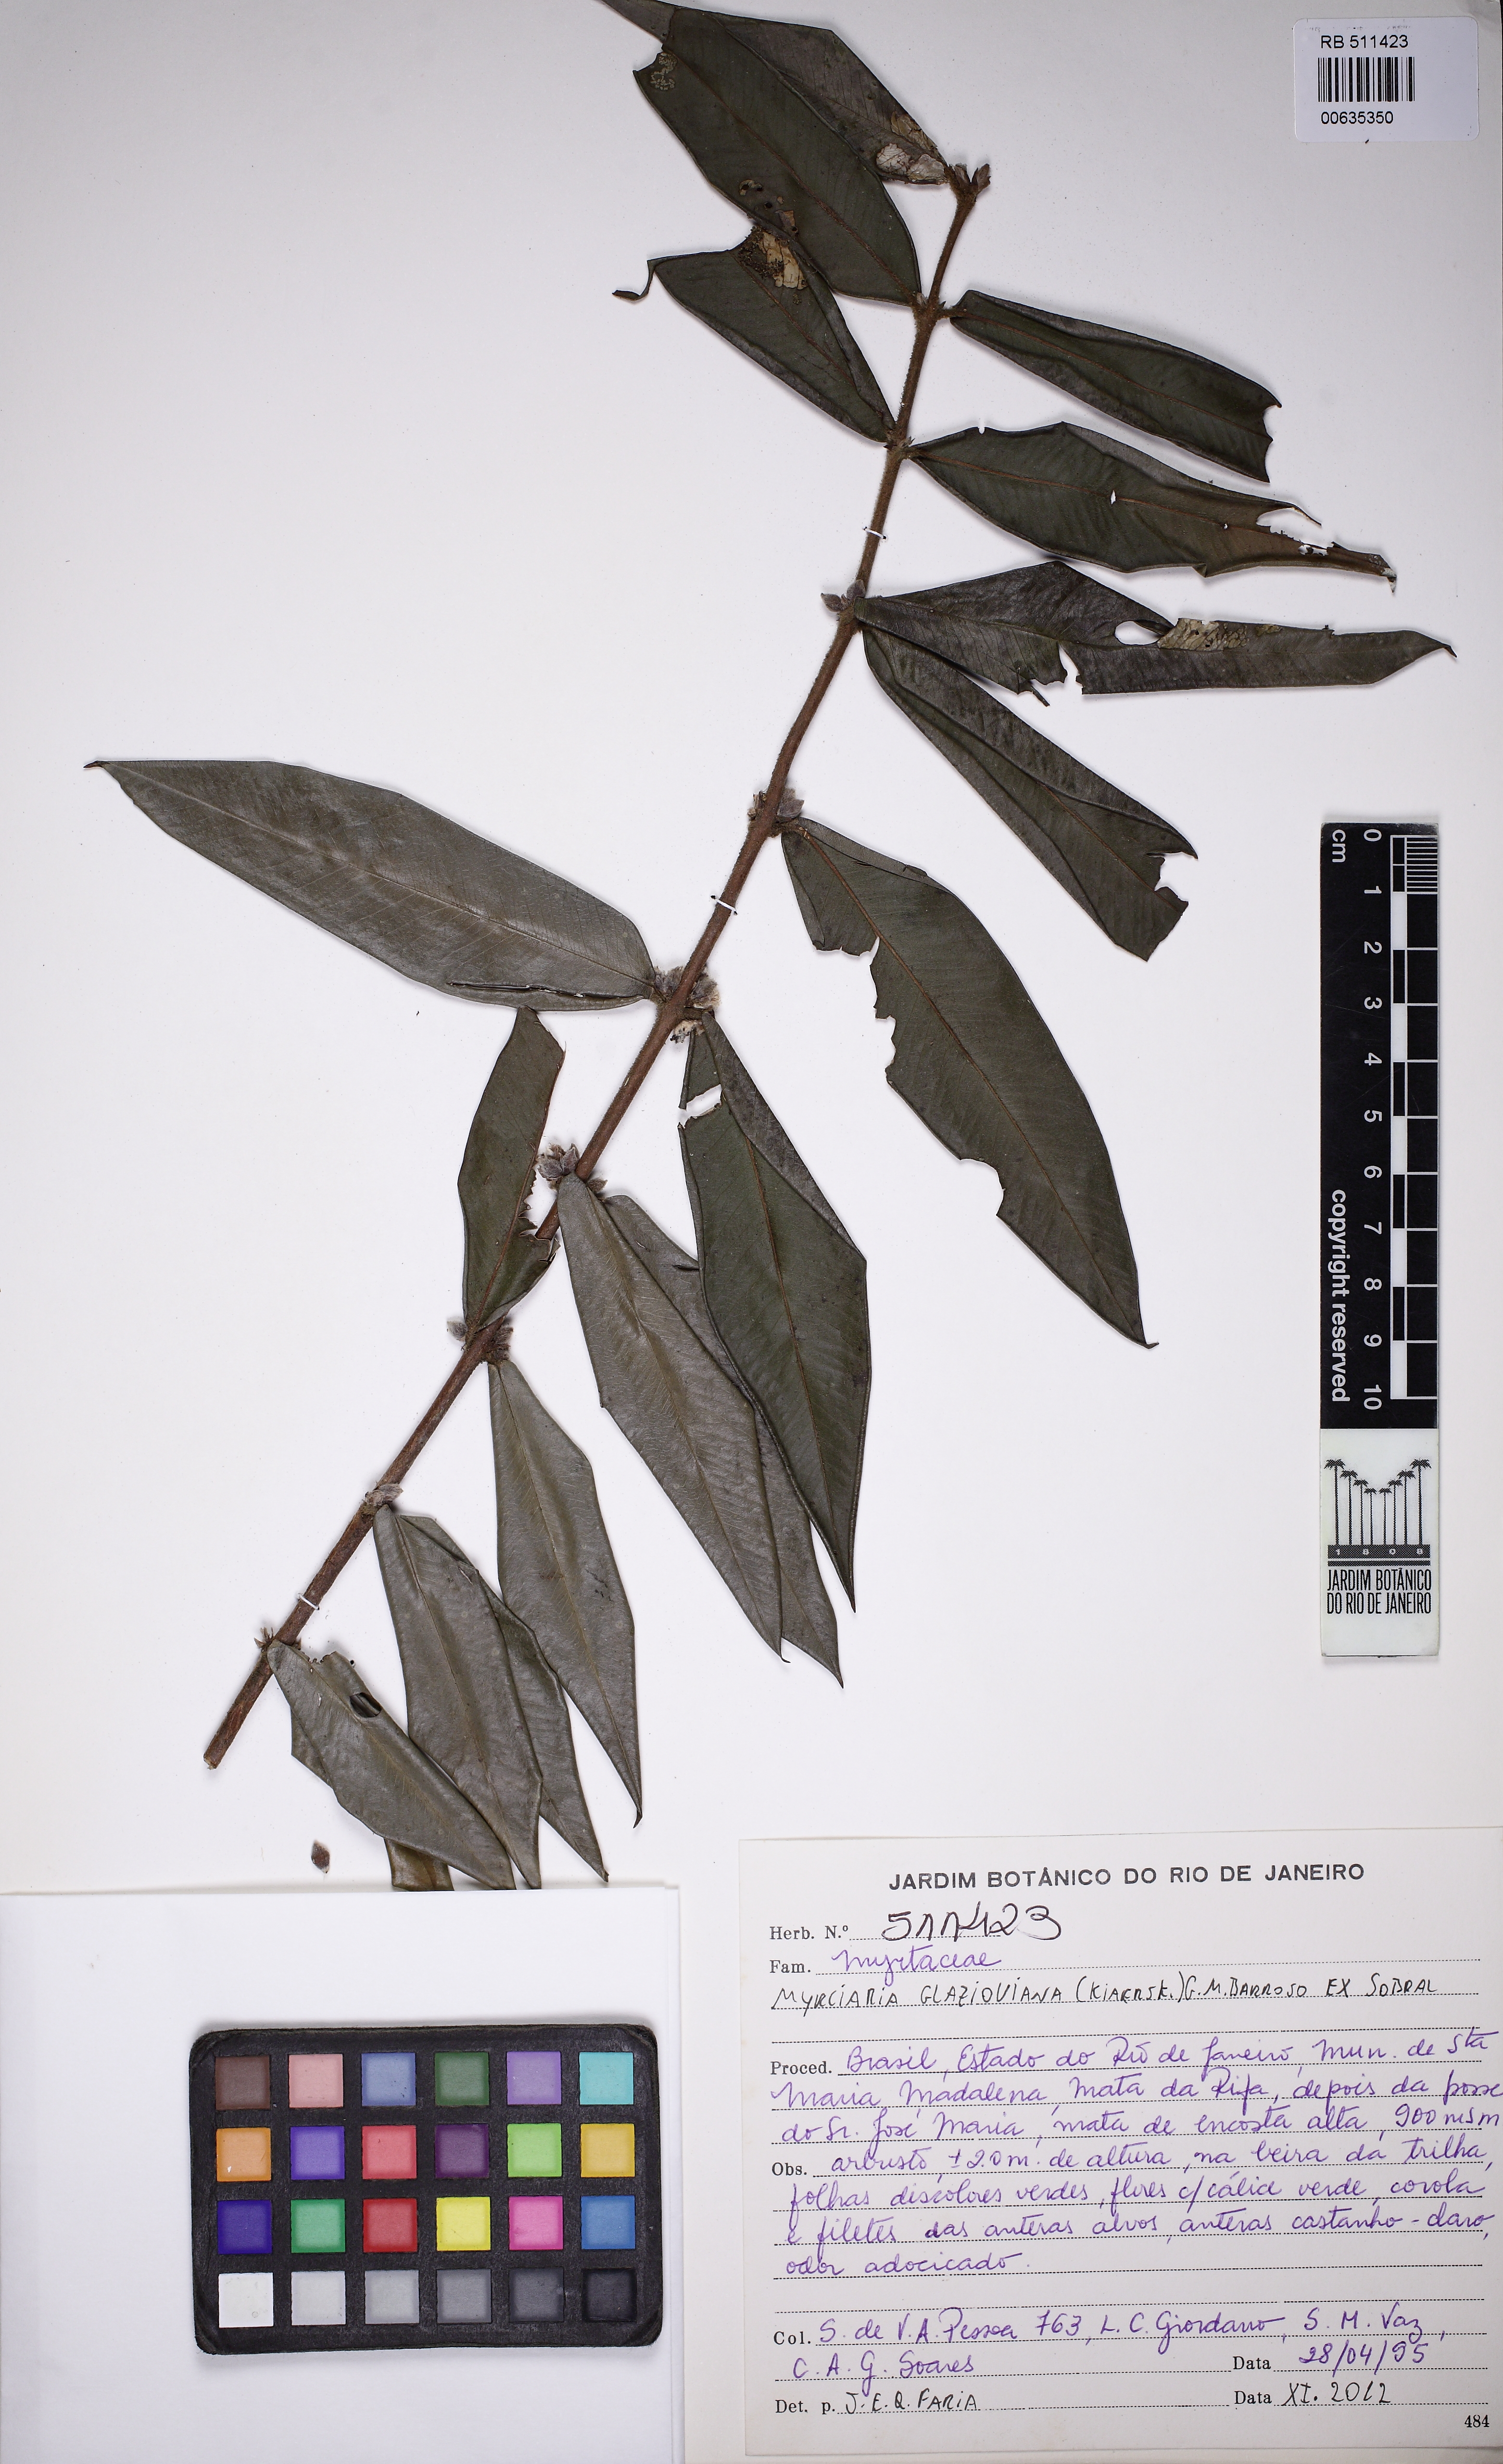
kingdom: Plantae
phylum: Tracheophyta
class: Magnoliopsida
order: Myrtales
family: Myrtaceae
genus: Myrciaria
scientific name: Myrciaria glazioviana
